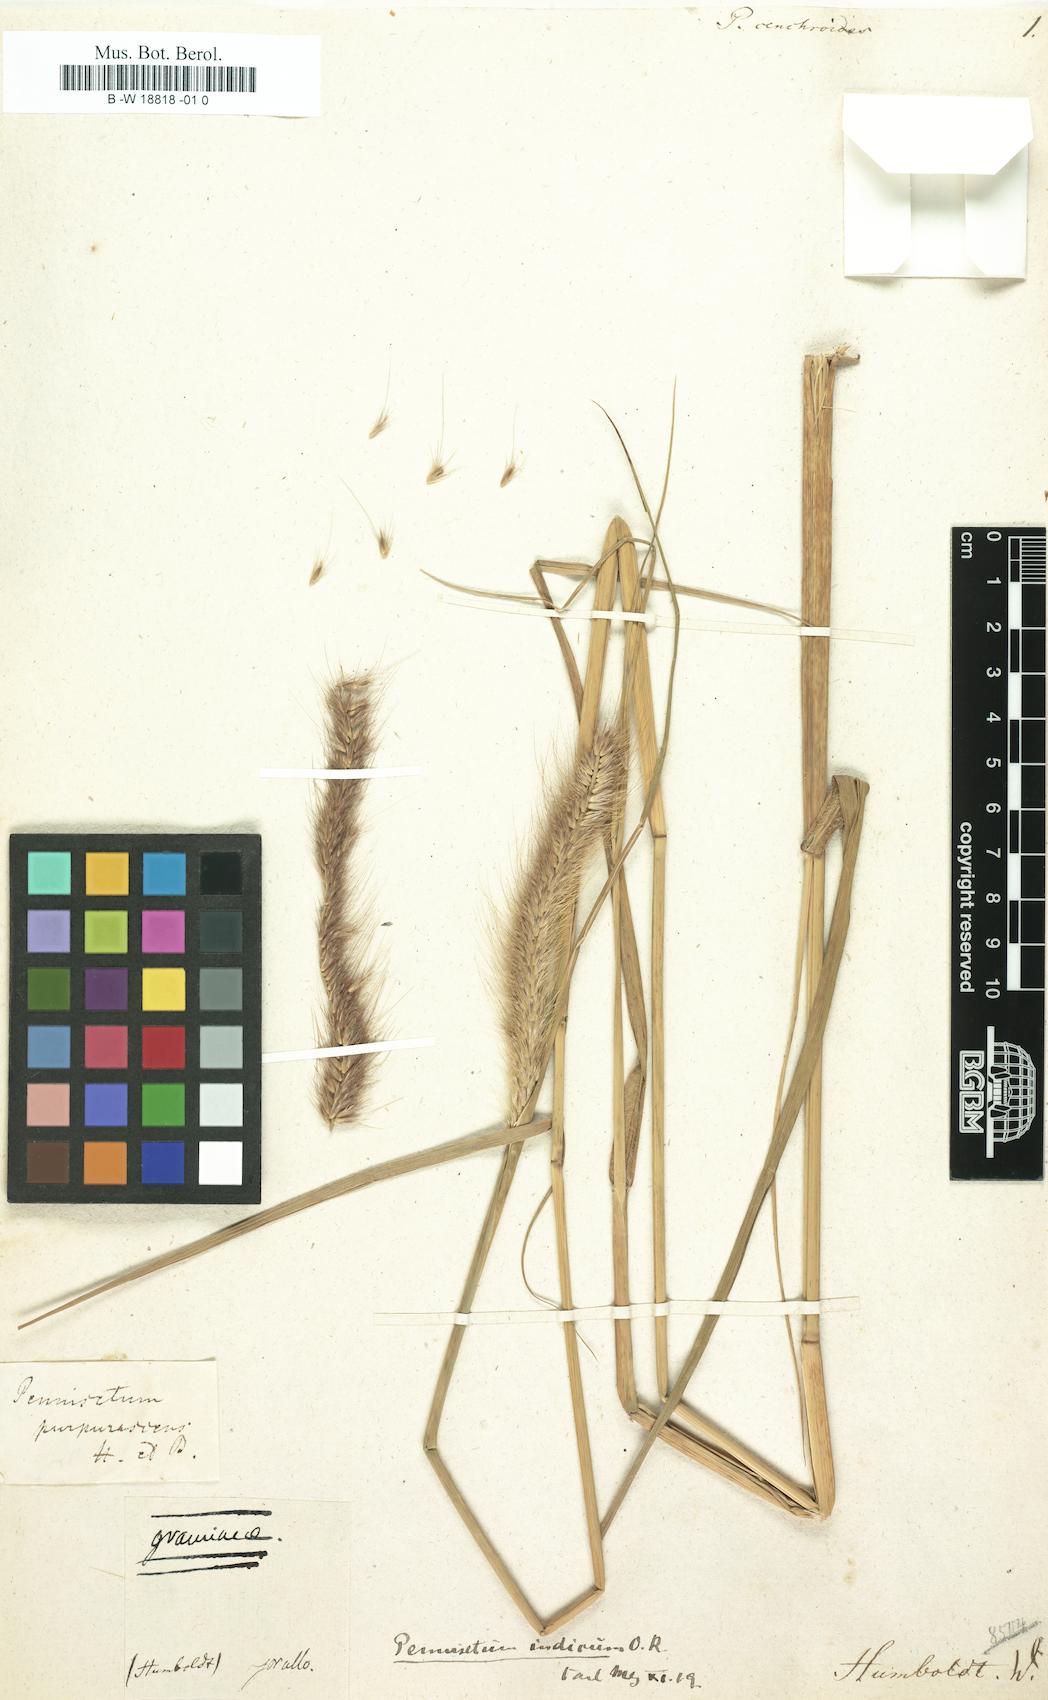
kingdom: Plantae
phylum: Tracheophyta
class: Liliopsida
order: Poales
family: Poaceae
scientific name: Poaceae
